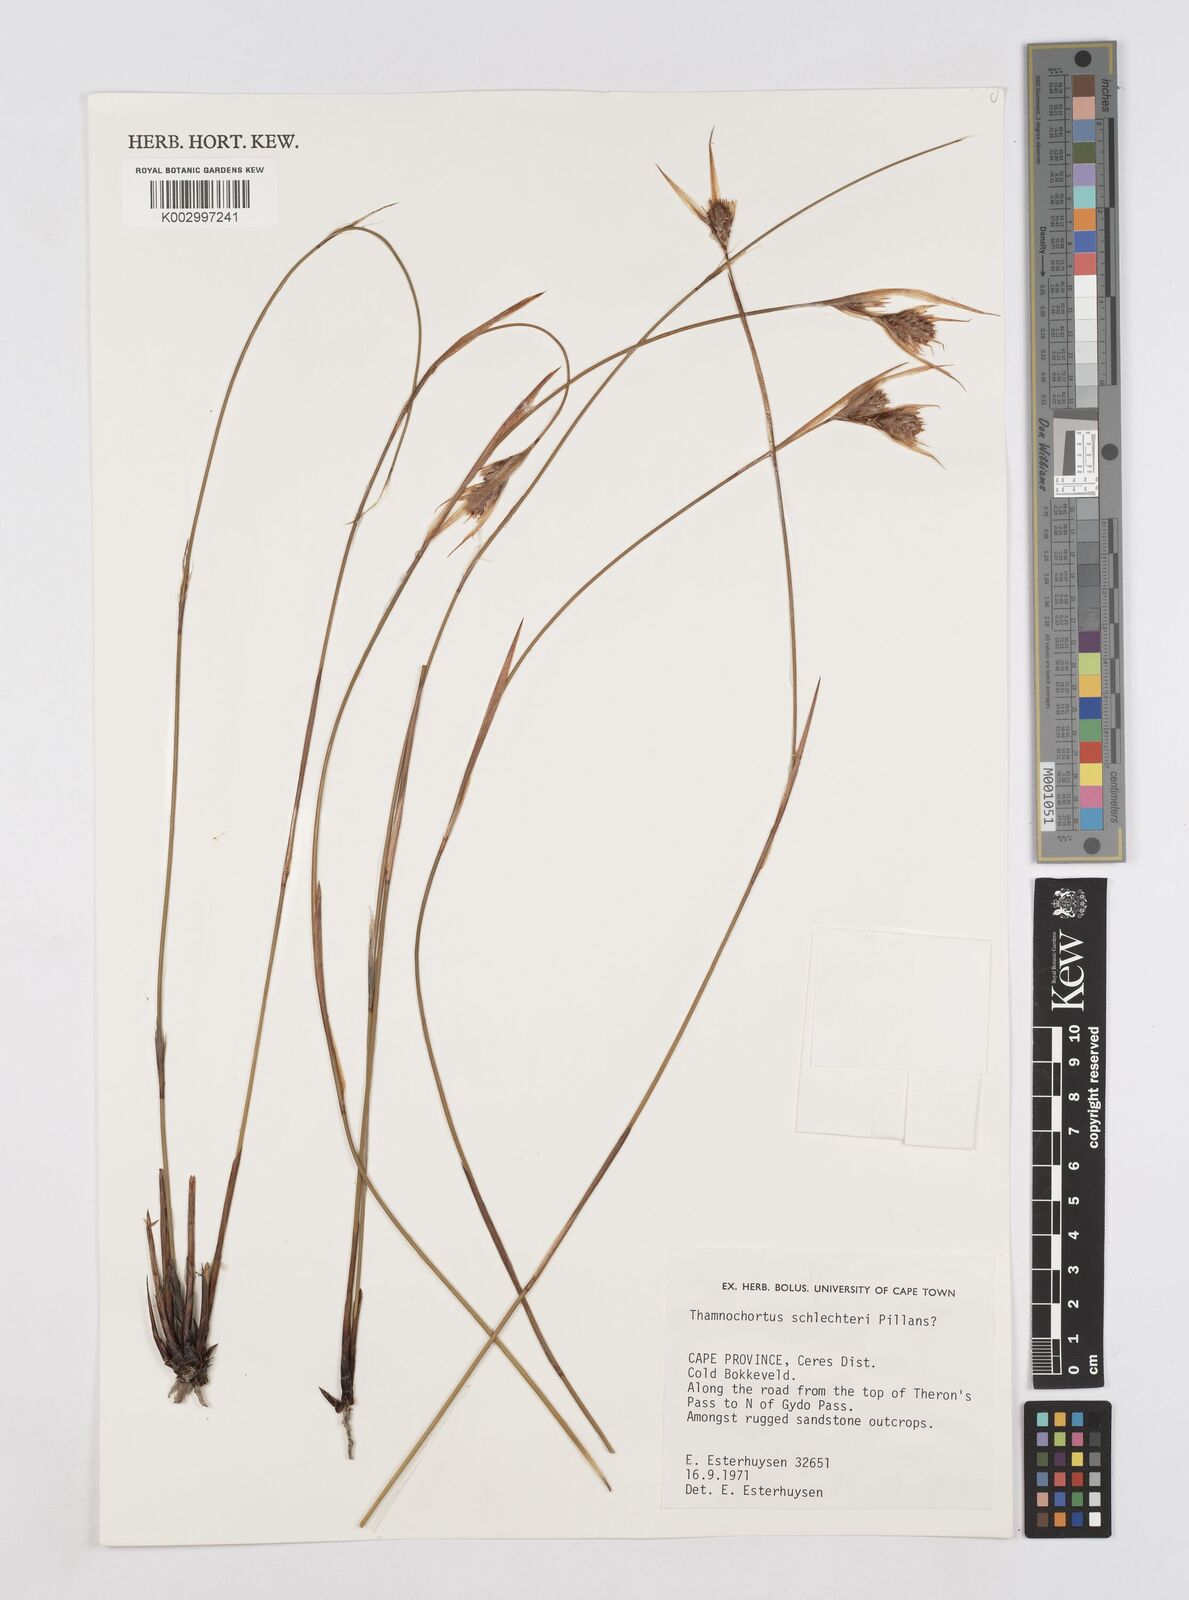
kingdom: Plantae
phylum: Tracheophyta
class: Liliopsida
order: Poales
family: Restionaceae
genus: Thamnochortus
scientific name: Thamnochortus schlechteri
